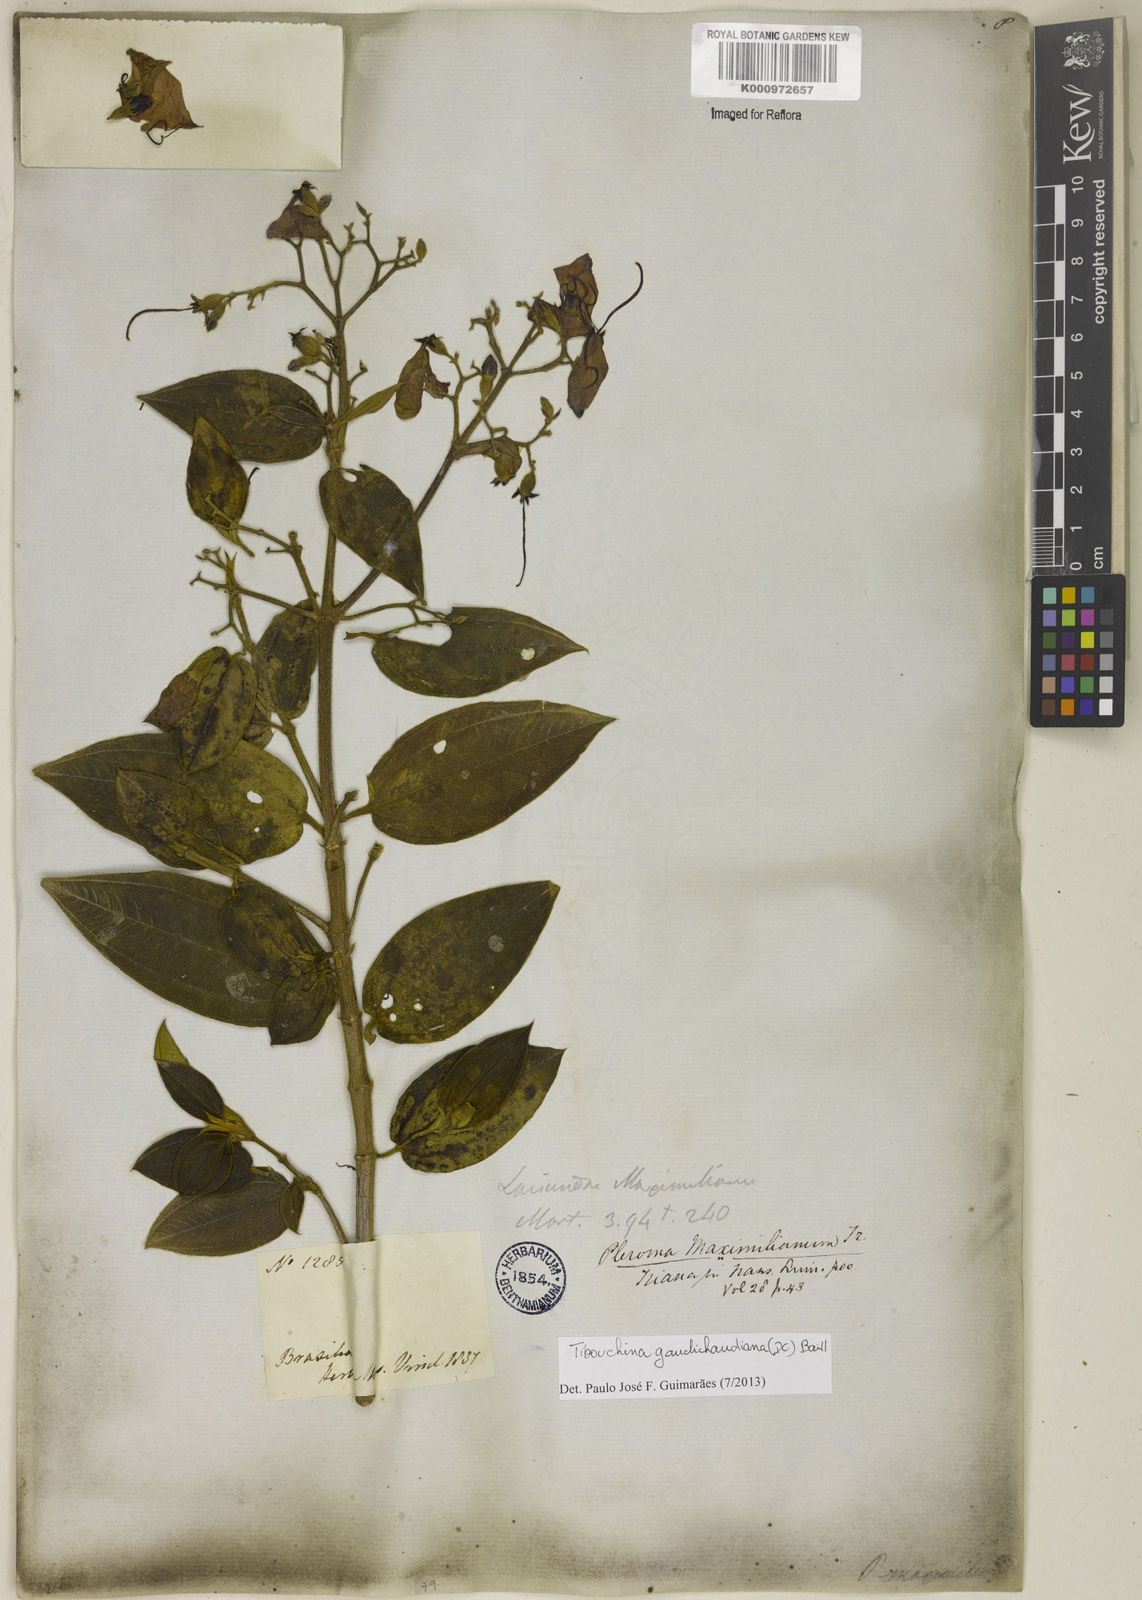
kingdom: Plantae
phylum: Tracheophyta
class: Magnoliopsida
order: Myrtales
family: Melastomataceae
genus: Pleroma
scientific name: Pleroma gaudichaudianum
